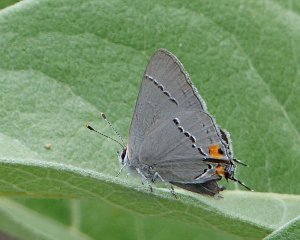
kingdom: Animalia
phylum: Arthropoda
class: Insecta
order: Lepidoptera
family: Lycaenidae
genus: Strymon
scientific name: Strymon melinus
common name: Gray Hairstreak
